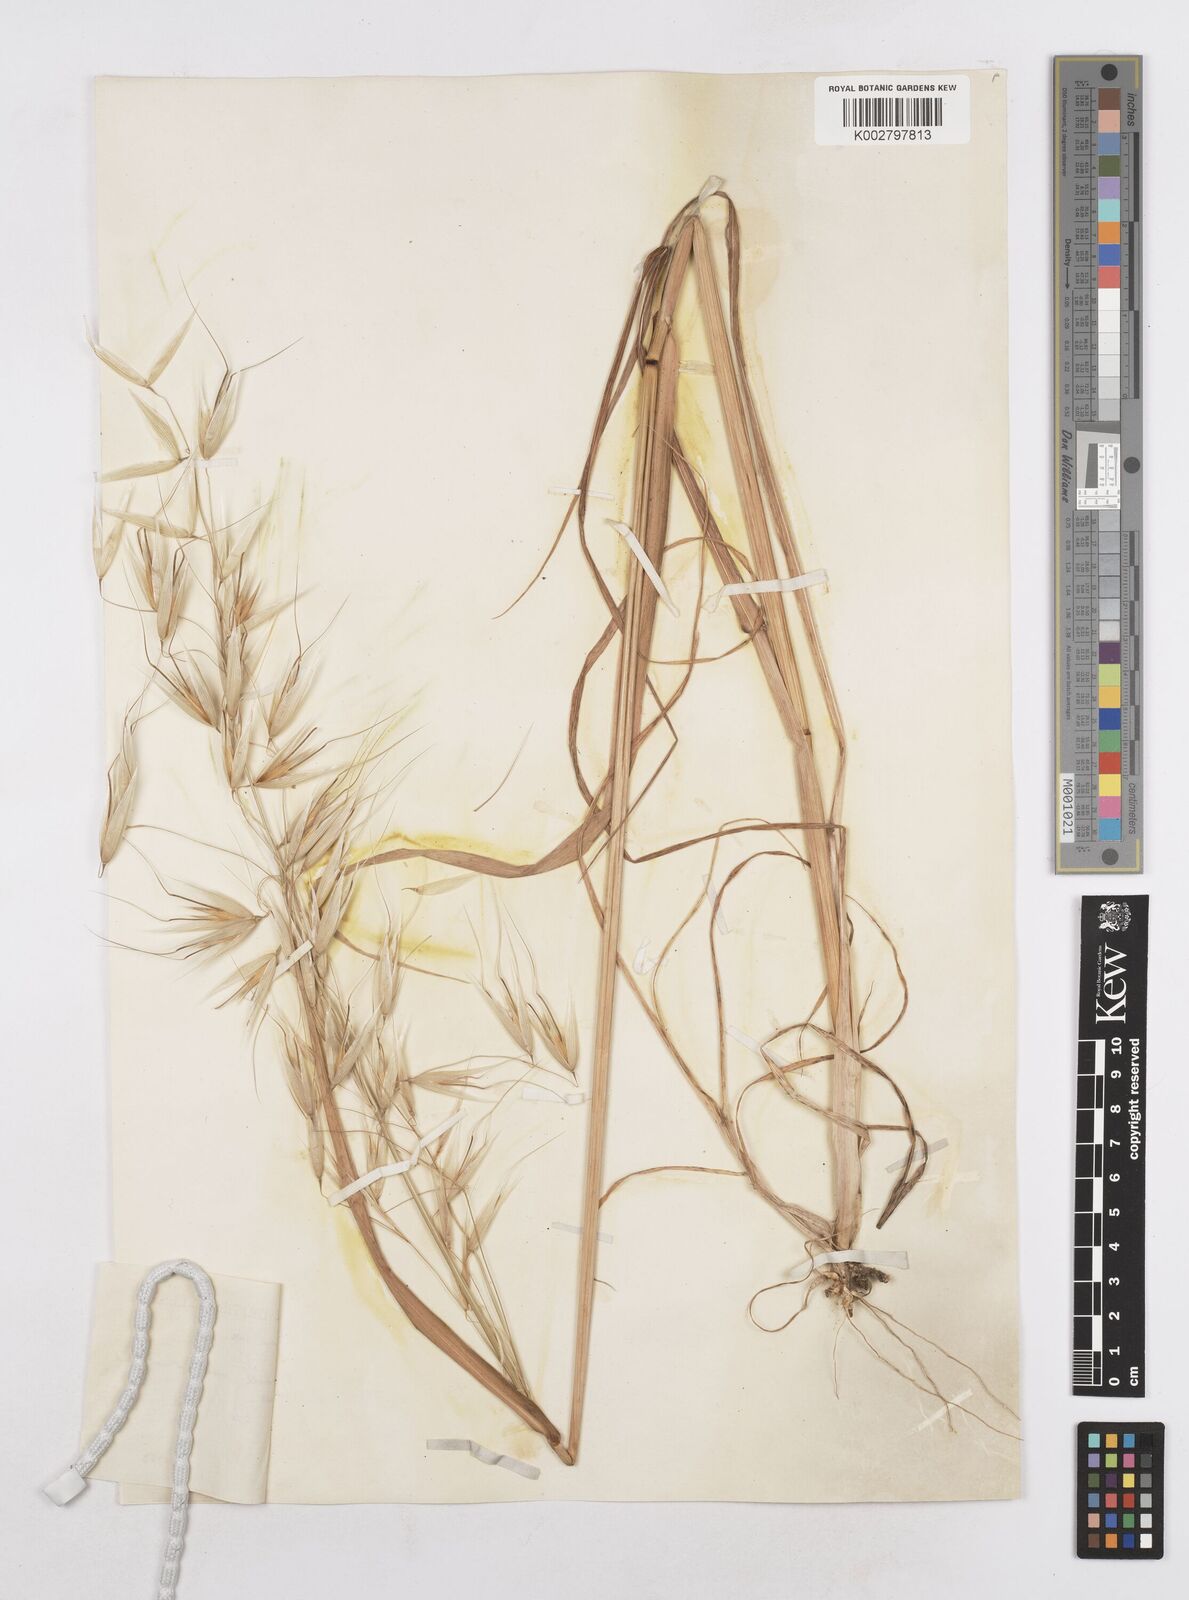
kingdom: Plantae
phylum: Tracheophyta
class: Liliopsida
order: Poales
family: Poaceae
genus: Avena
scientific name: Avena sterilis
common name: Animated oat
